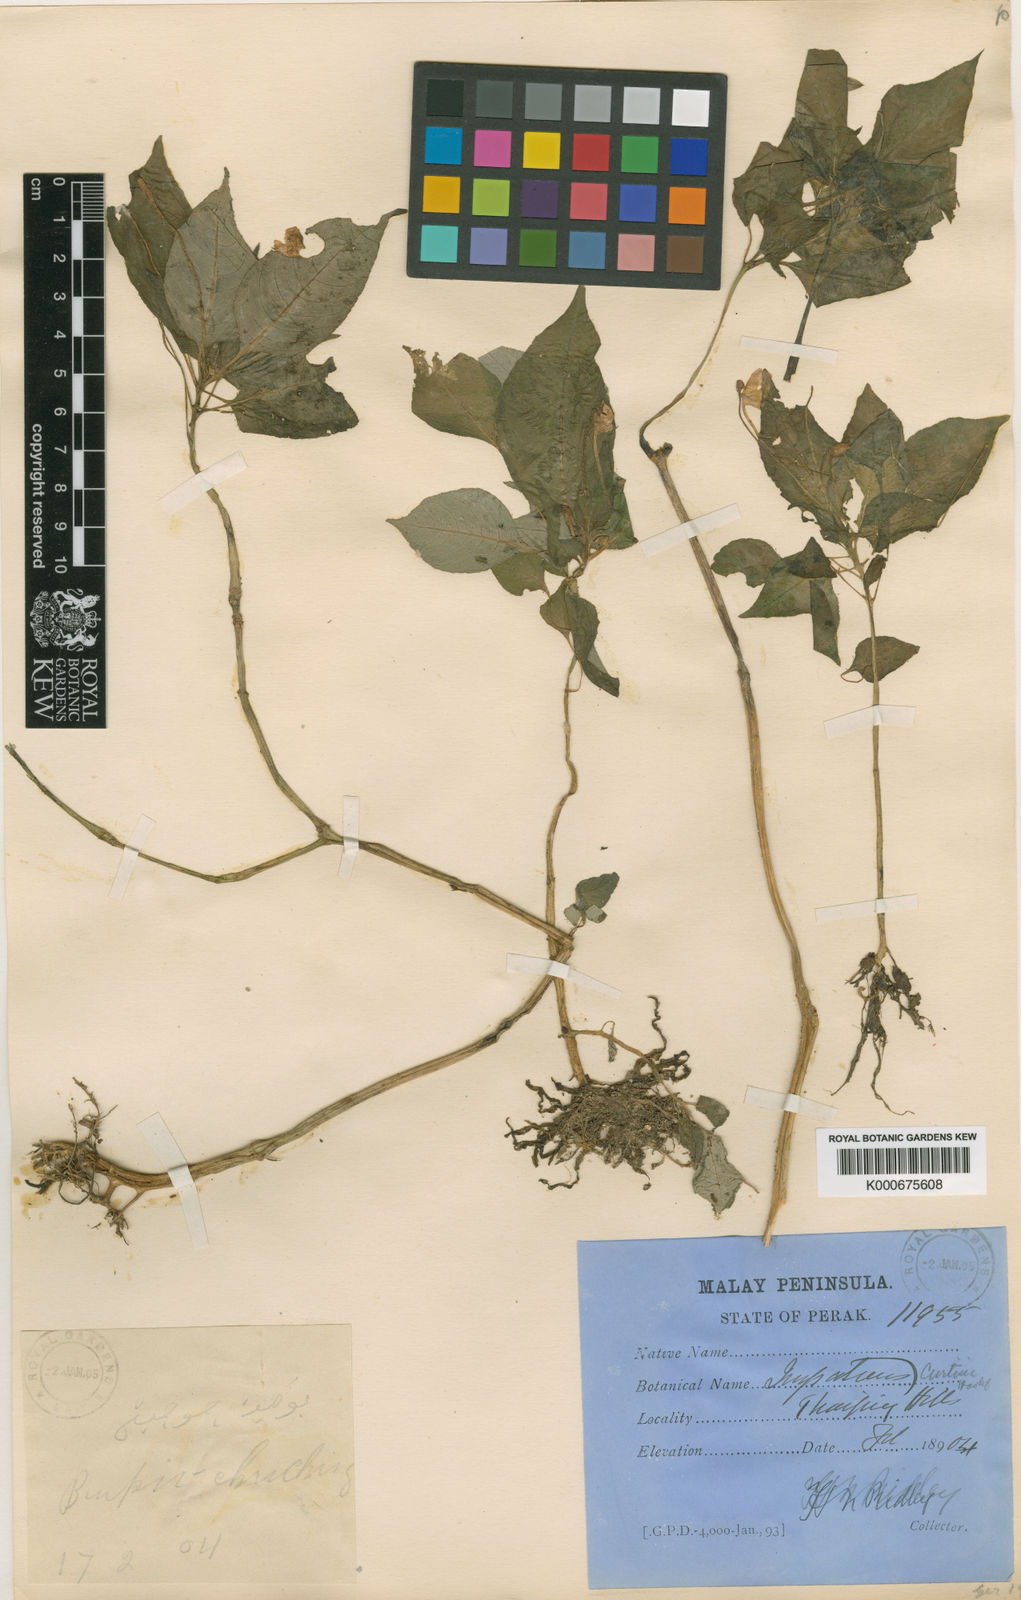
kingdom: Plantae
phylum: Tracheophyta
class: Magnoliopsida
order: Ericales
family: Balsaminaceae
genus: Impatiens
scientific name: Impatiens curtisii
